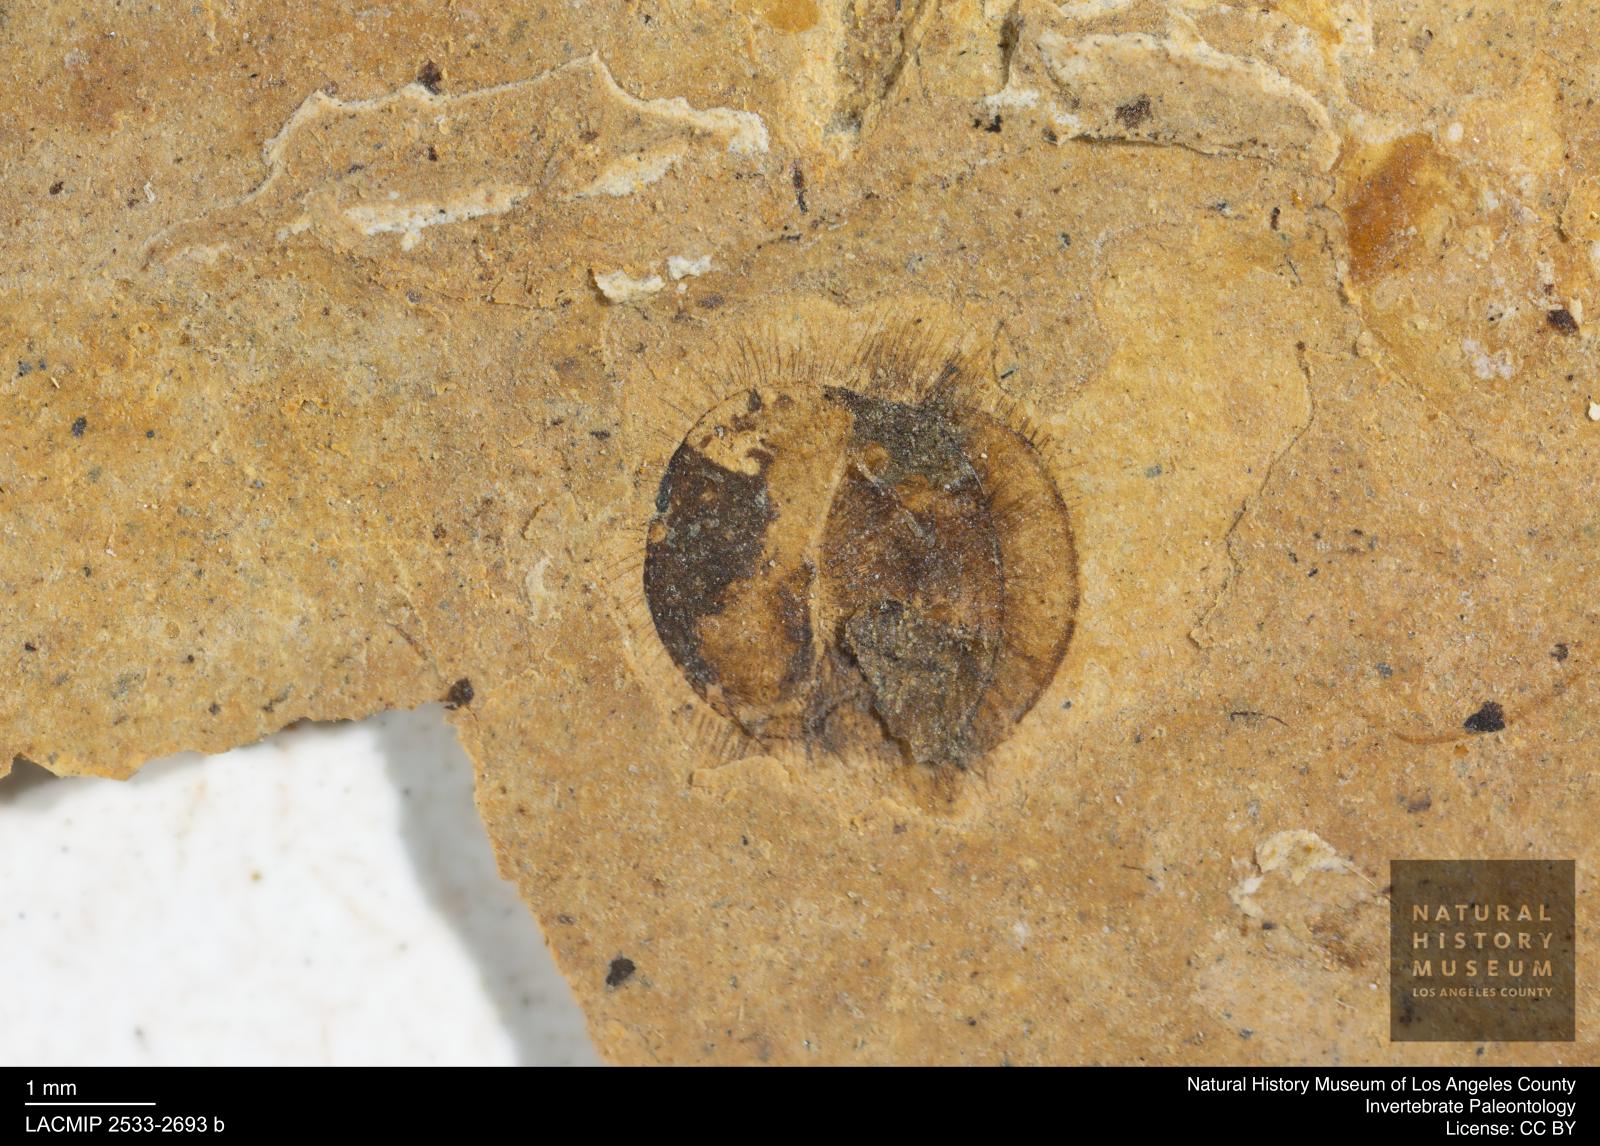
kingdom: Animalia
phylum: Arthropoda
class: Insecta
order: Hymenoptera
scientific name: Hymenoptera
